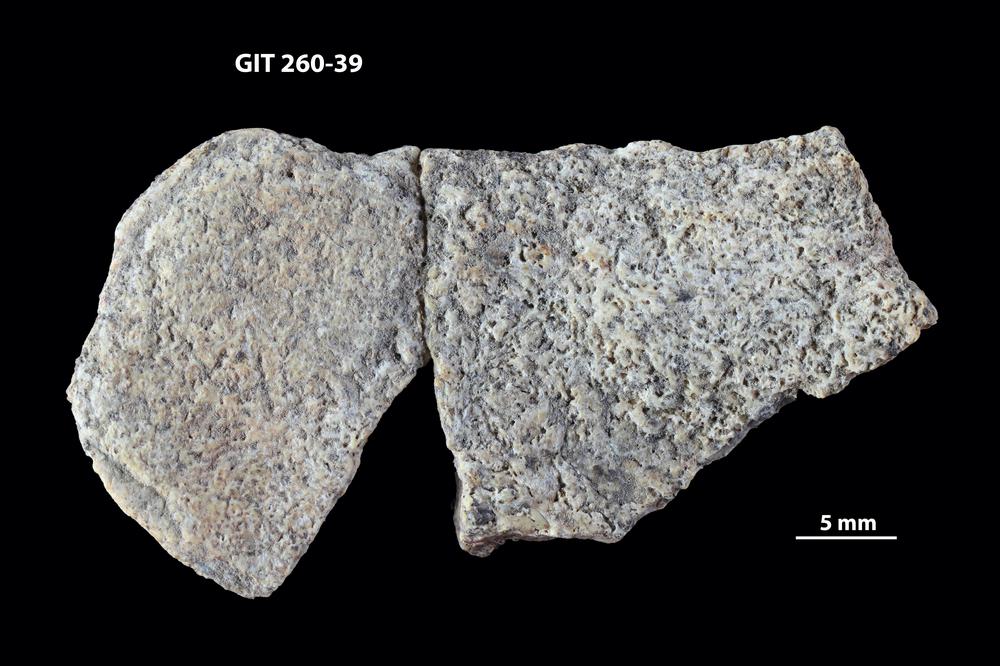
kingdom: Animalia
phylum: Chordata
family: Homostiidae
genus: Homostius
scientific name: Homostius
